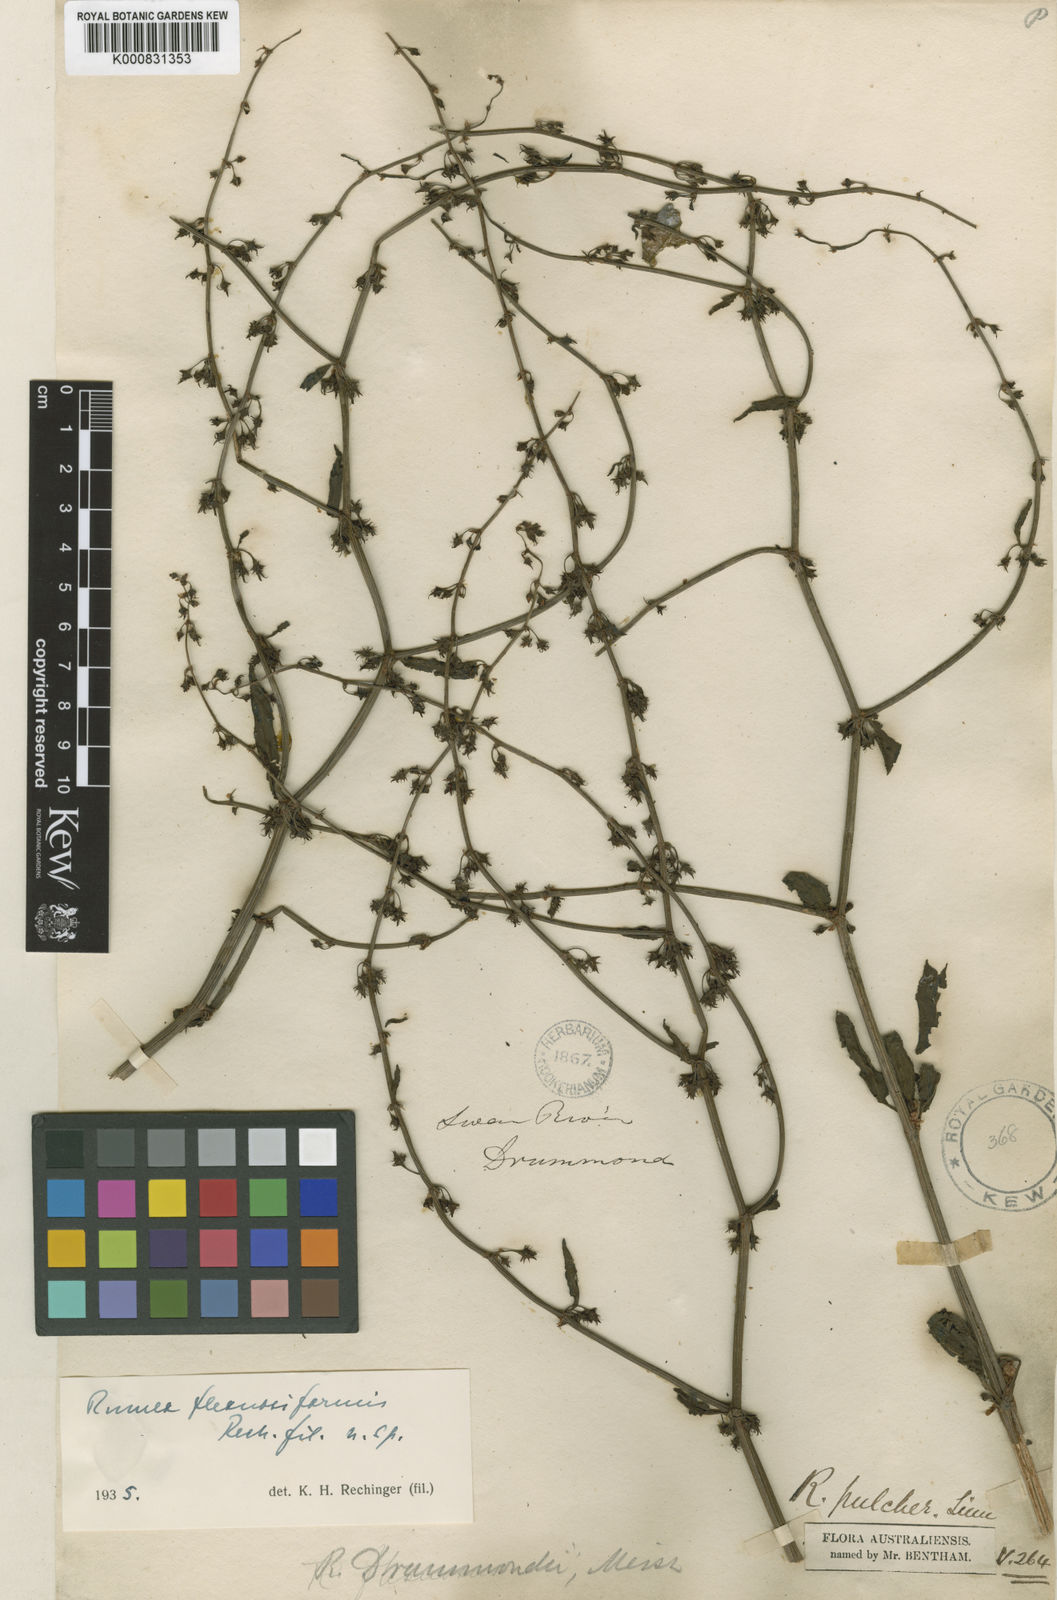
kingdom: Plantae
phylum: Tracheophyta
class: Magnoliopsida
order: Caryophyllales
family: Polygonaceae
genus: Rumex
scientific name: Rumex drummondii
